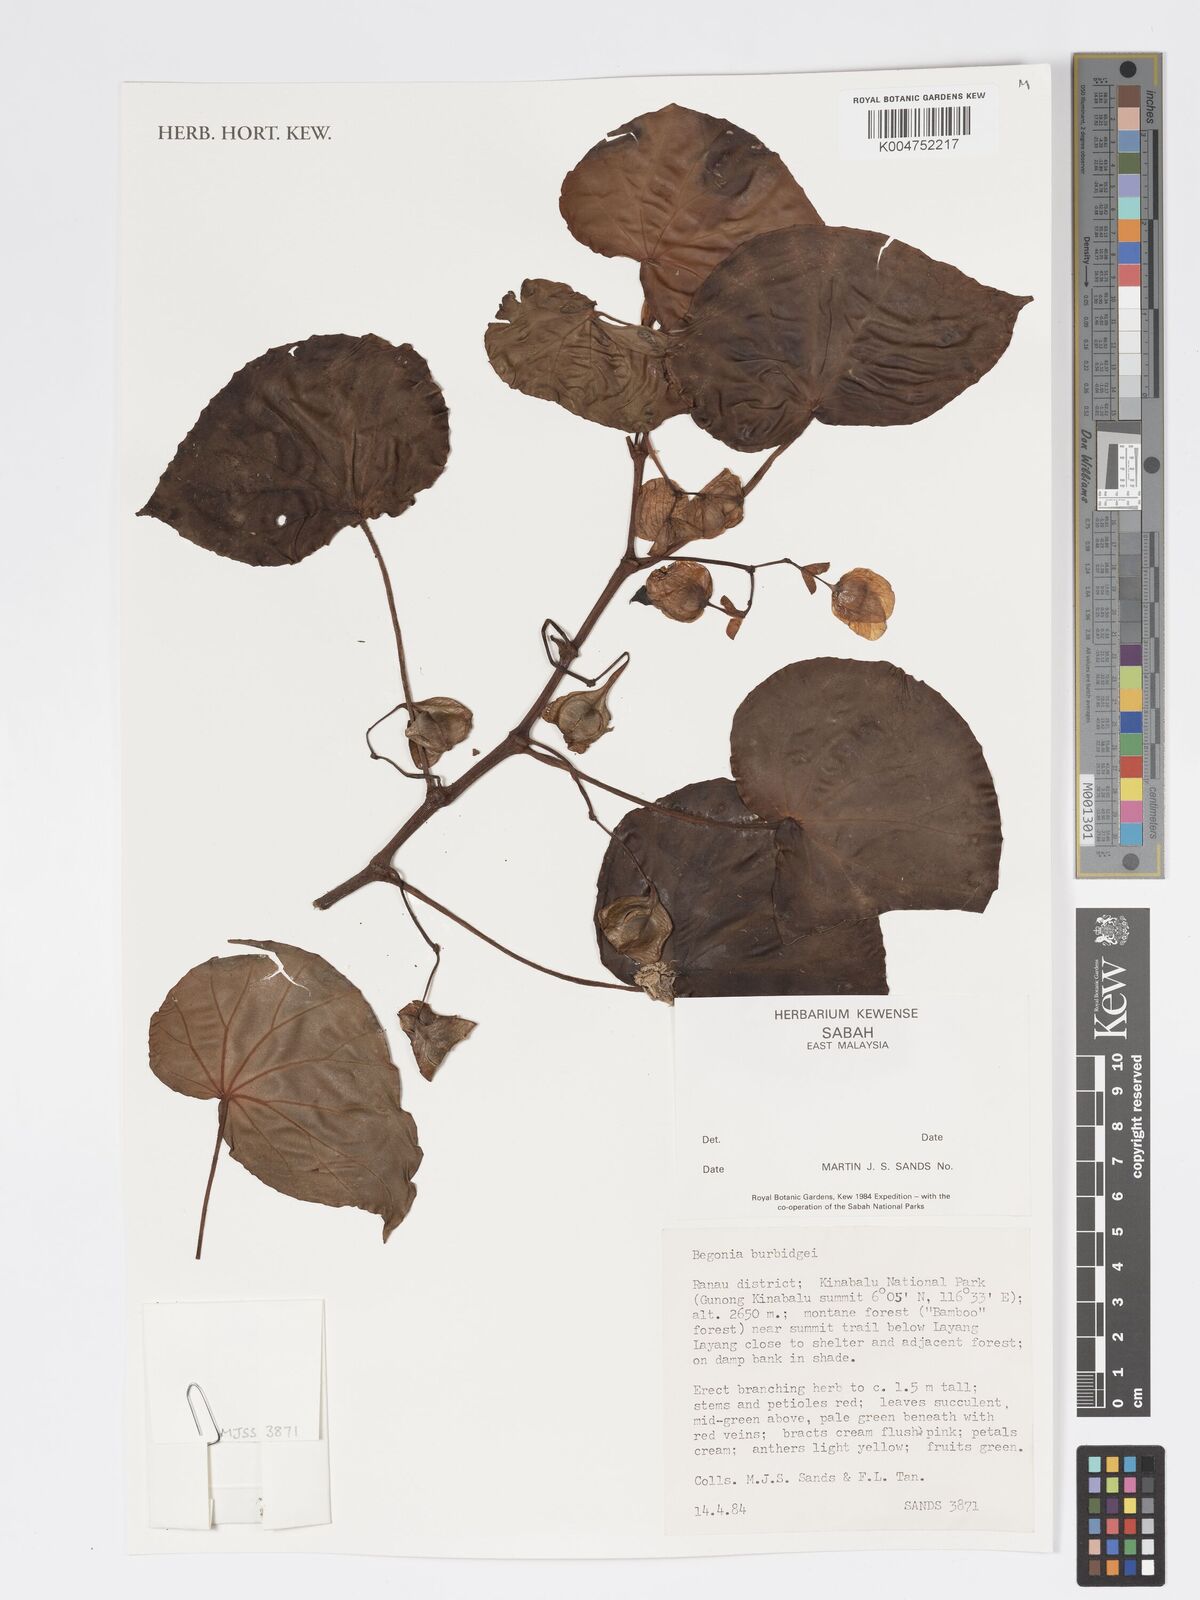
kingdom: Plantae
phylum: Tracheophyta
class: Magnoliopsida
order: Cucurbitales
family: Begoniaceae
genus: Begonia
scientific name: Begonia burbidgei
